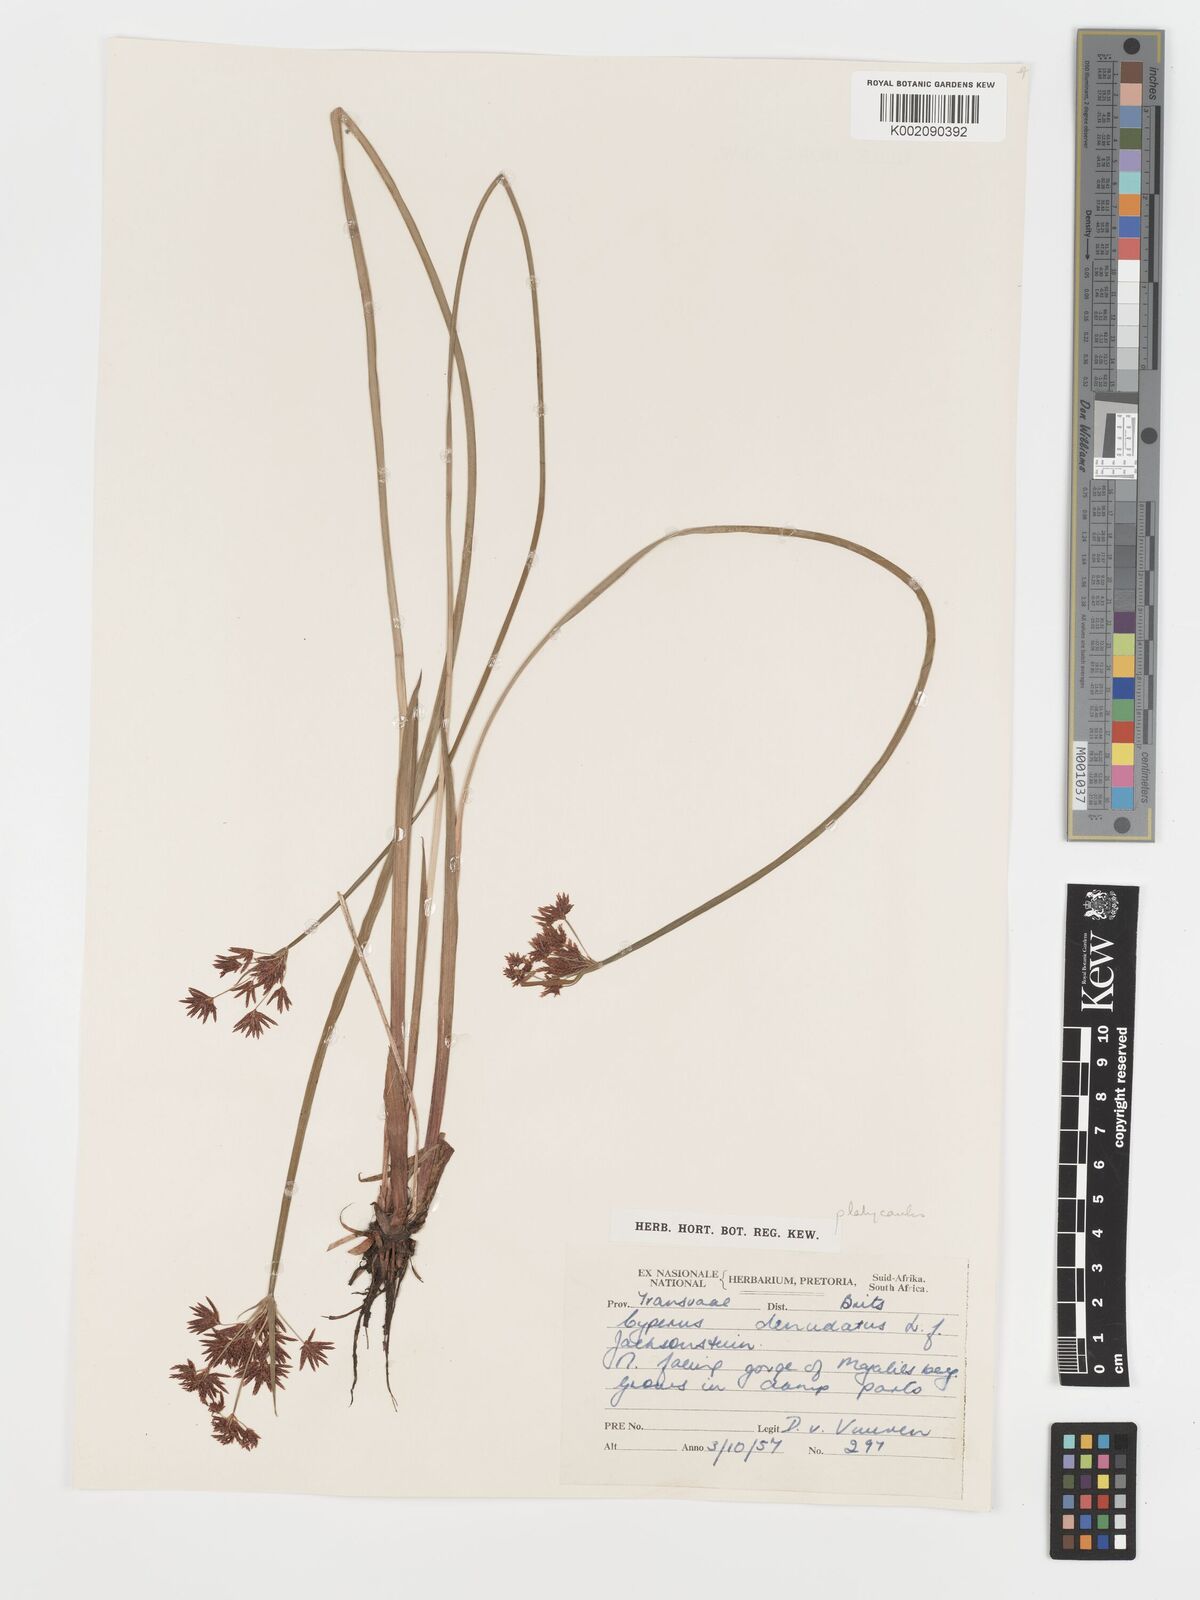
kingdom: Plantae
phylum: Tracheophyta
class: Liliopsida
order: Poales
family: Cyperaceae
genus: Cyperus
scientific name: Cyperus platycaulis
